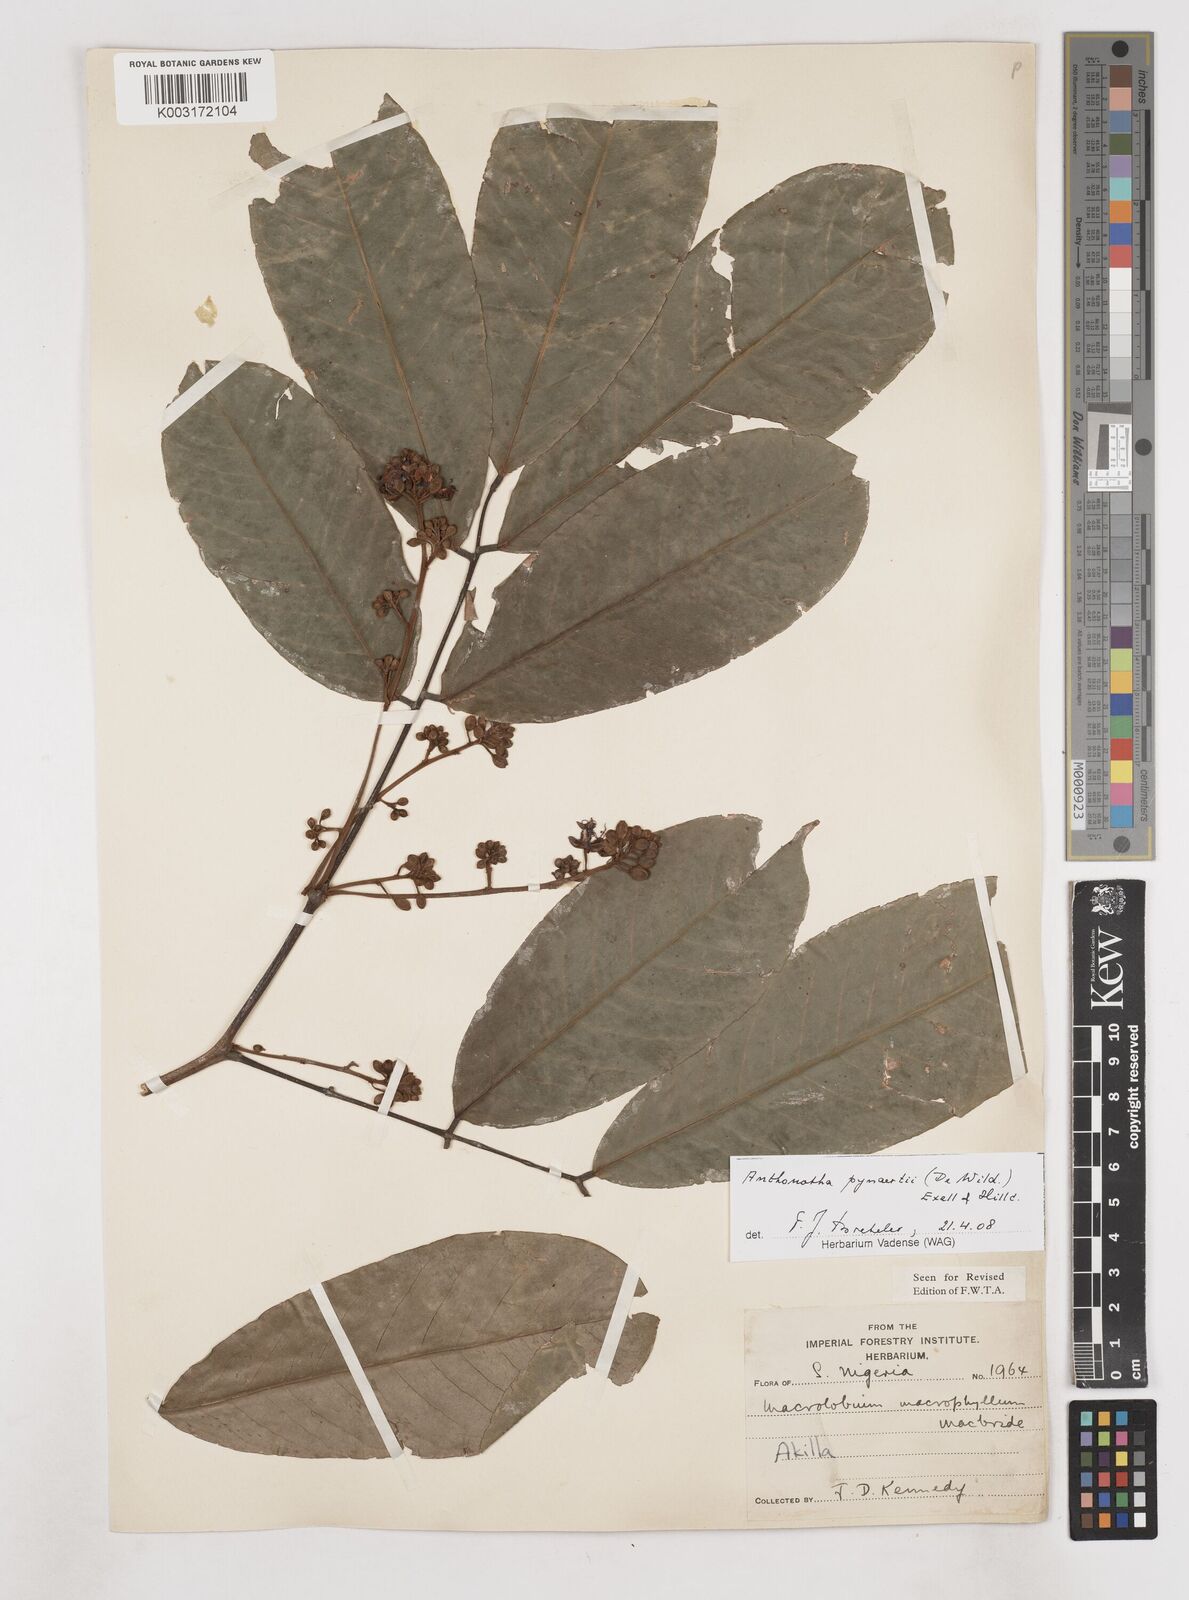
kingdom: Plantae
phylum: Tracheophyta
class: Magnoliopsida
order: Fabales
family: Fabaceae
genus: Anthonotha
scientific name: Anthonotha pynaertii
